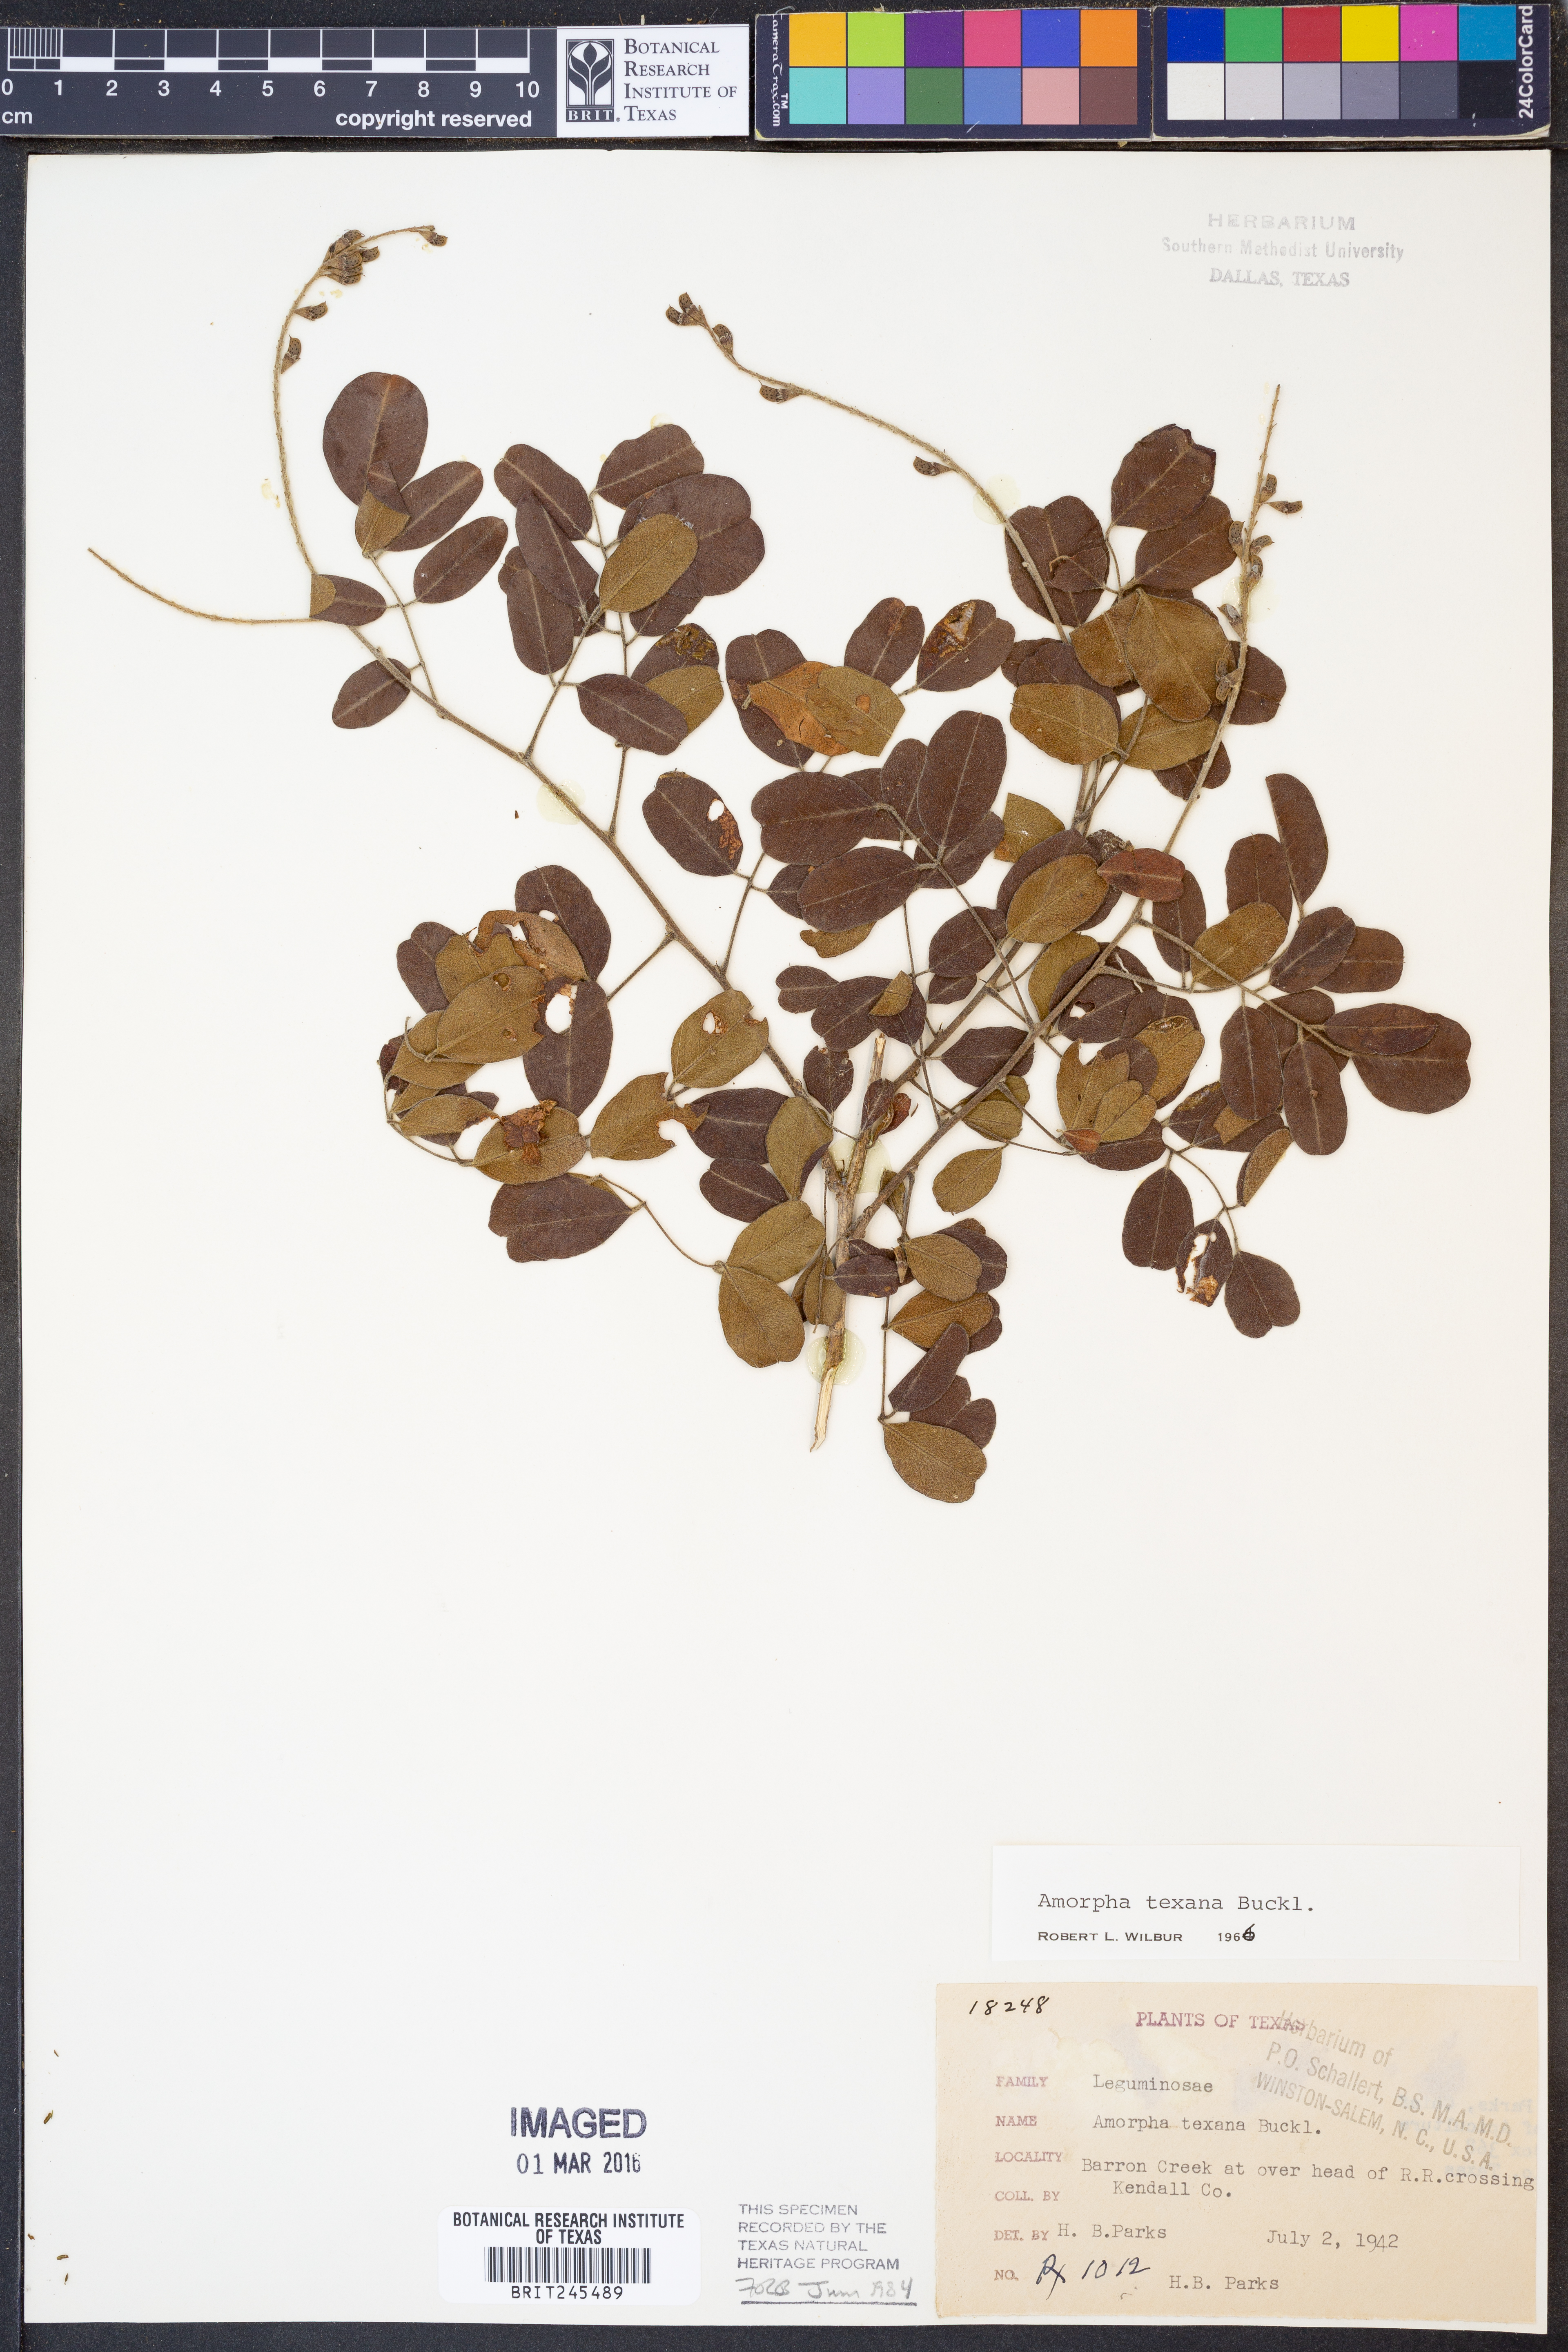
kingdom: Plantae
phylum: Tracheophyta
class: Magnoliopsida
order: Fabales
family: Fabaceae
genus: Amorpha
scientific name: Amorpha roemeriana
